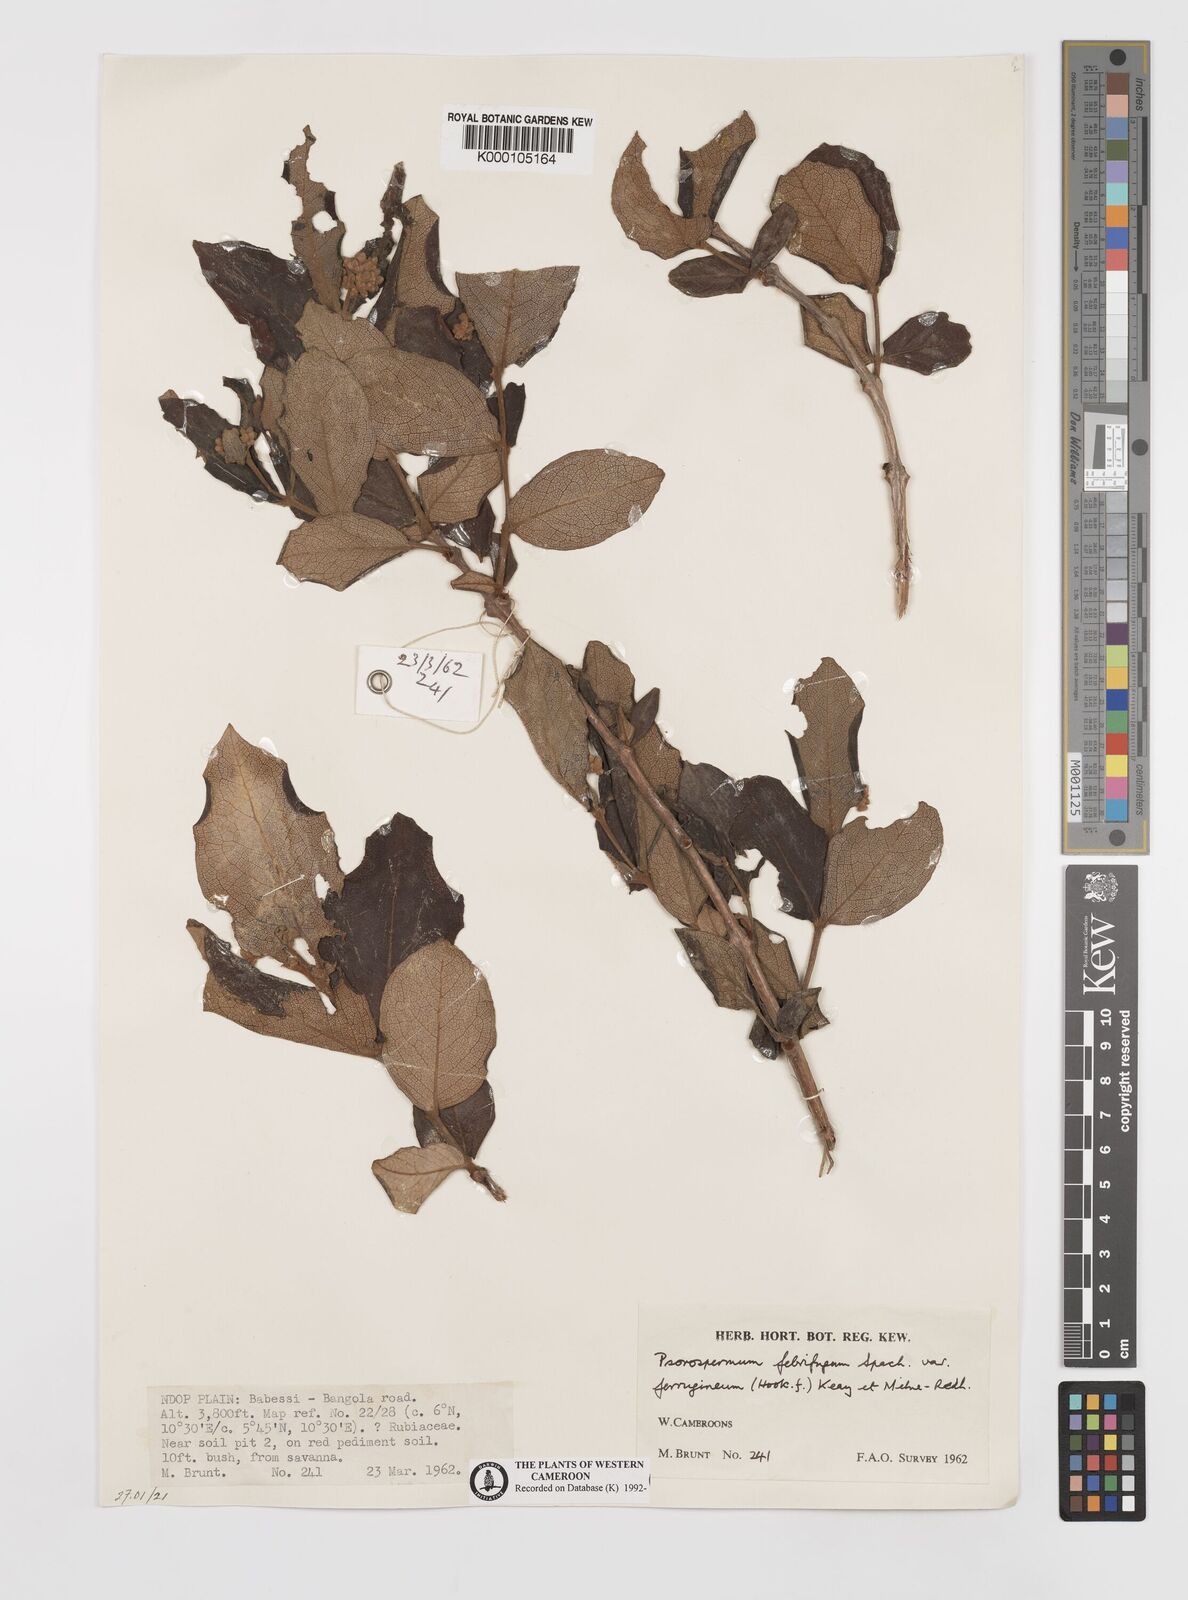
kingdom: Plantae
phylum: Tracheophyta
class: Magnoliopsida
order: Malpighiales
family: Hypericaceae
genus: Psorospermum
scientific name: Psorospermum
